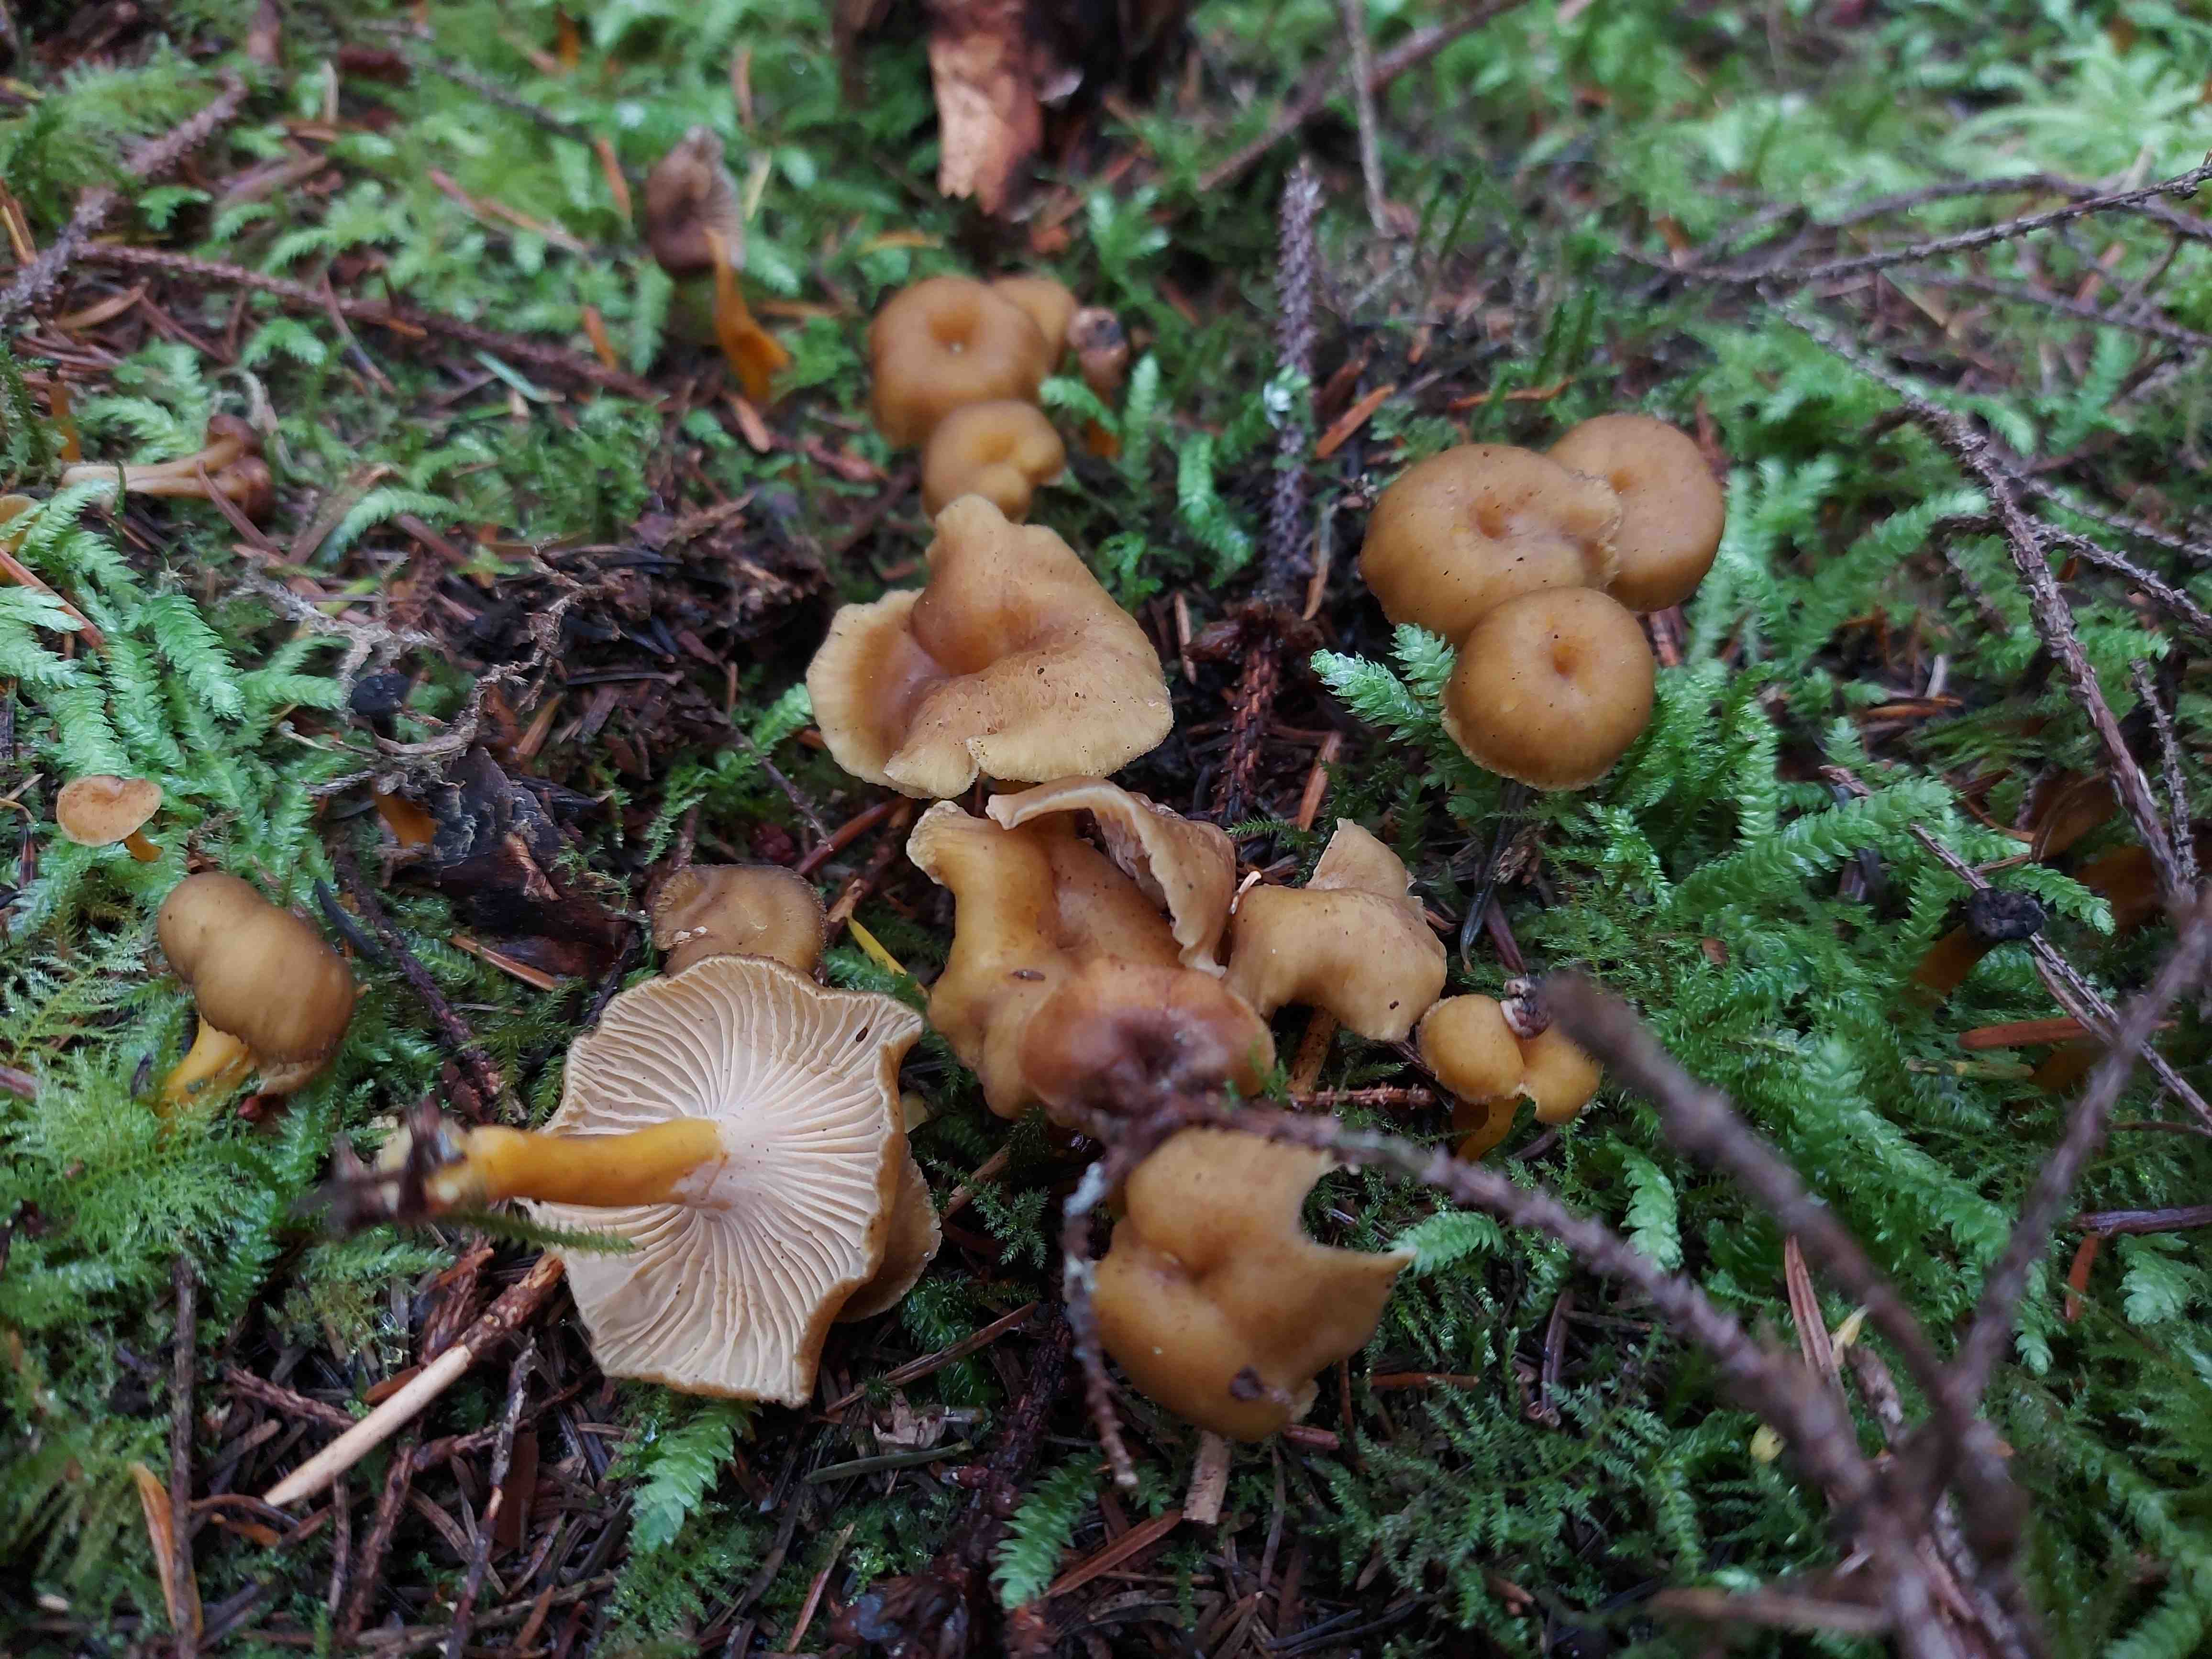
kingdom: Fungi
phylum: Basidiomycota
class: Agaricomycetes
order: Cantharellales
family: Hydnaceae
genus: Craterellus
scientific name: Craterellus tubaeformis
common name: tragt-kantarel
